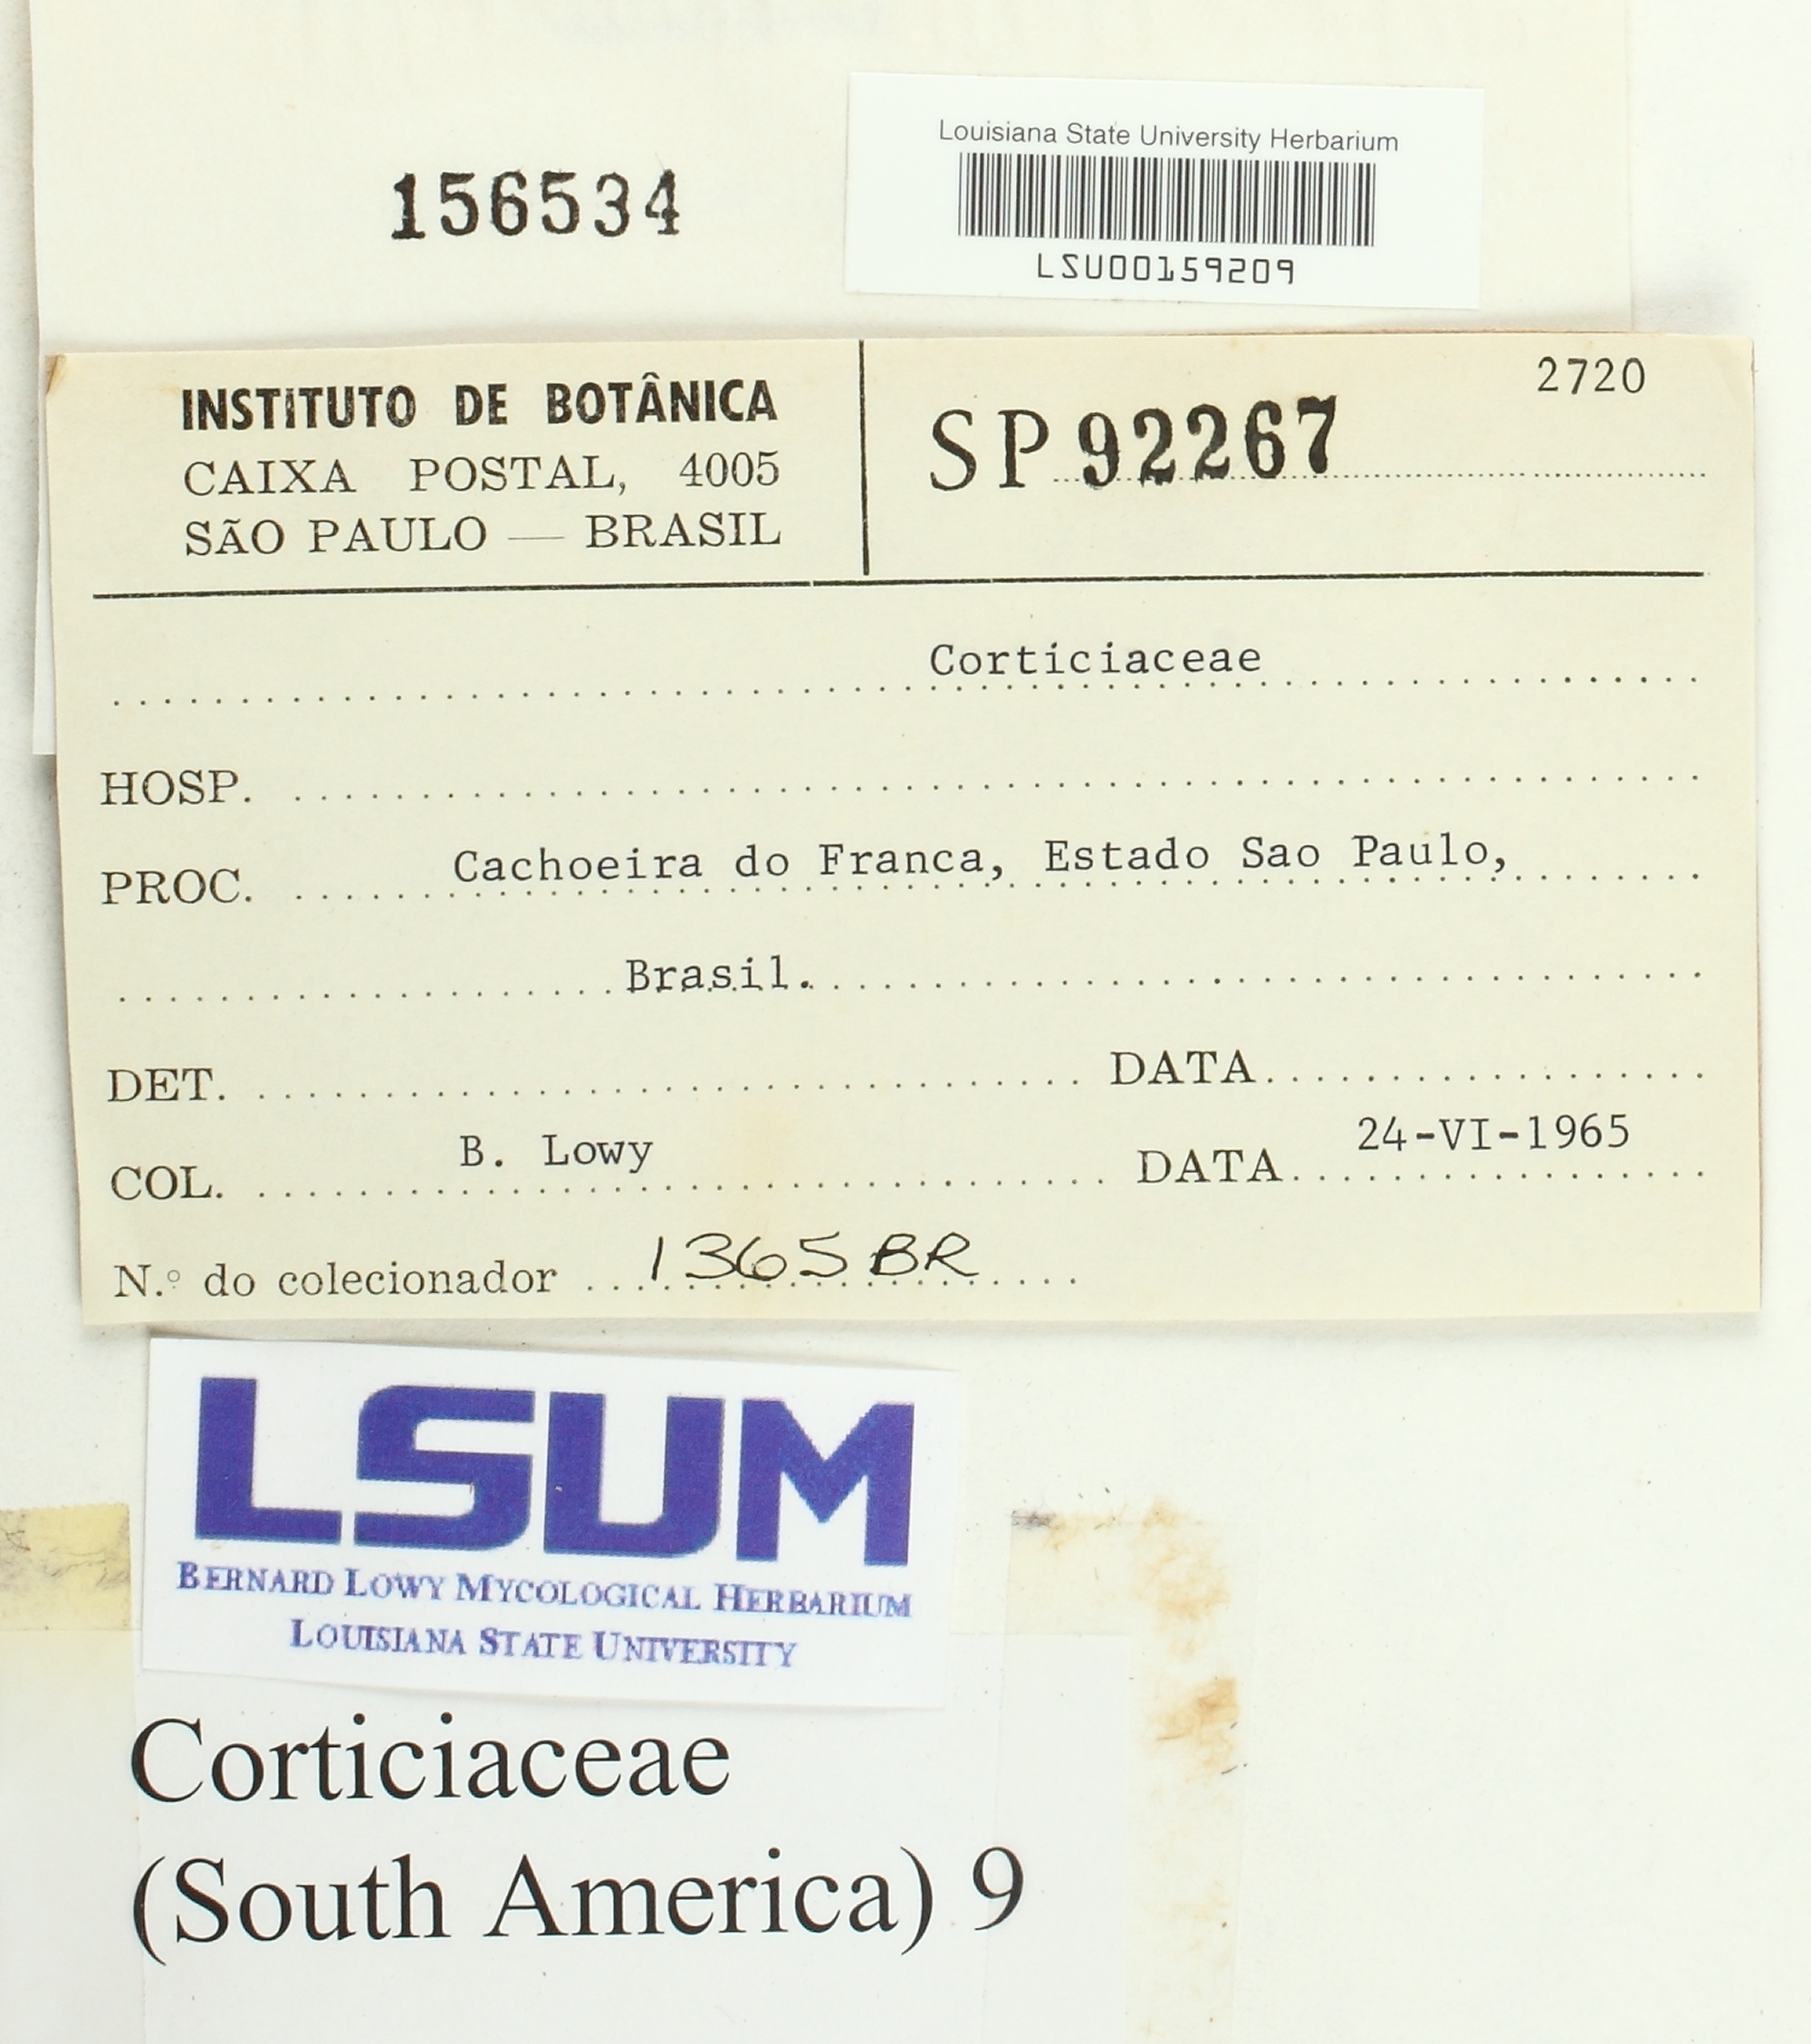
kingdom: Fungi
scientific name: Fungi
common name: Fungi
